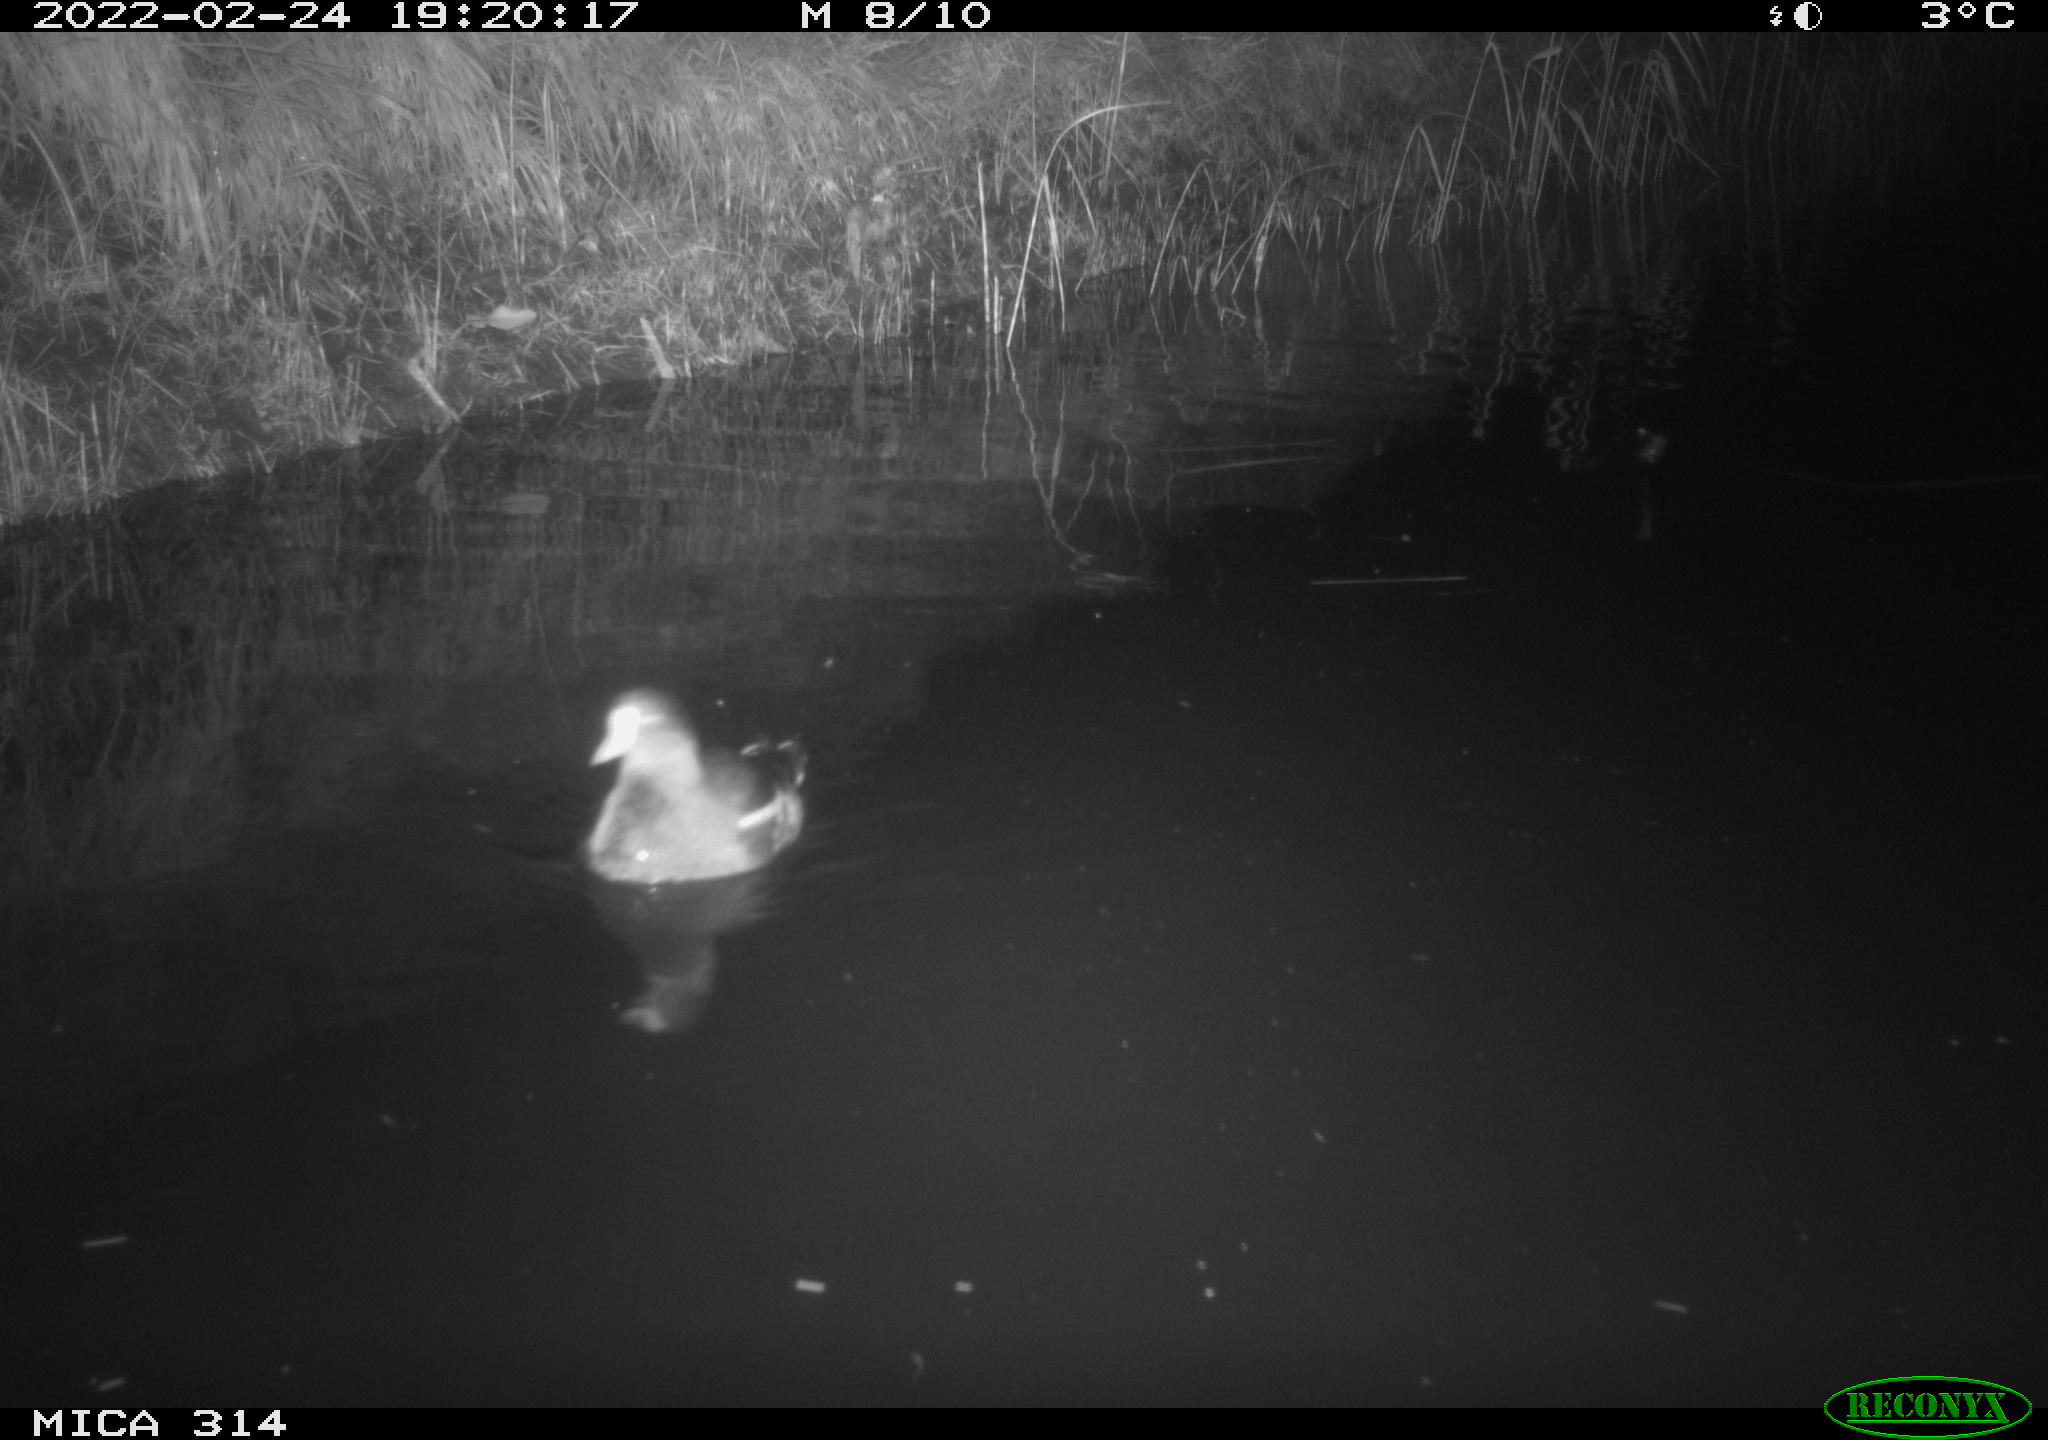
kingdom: Animalia
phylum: Chordata
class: Aves
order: Gruiformes
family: Rallidae
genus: Gallinula
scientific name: Gallinula chloropus
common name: Common moorhen
